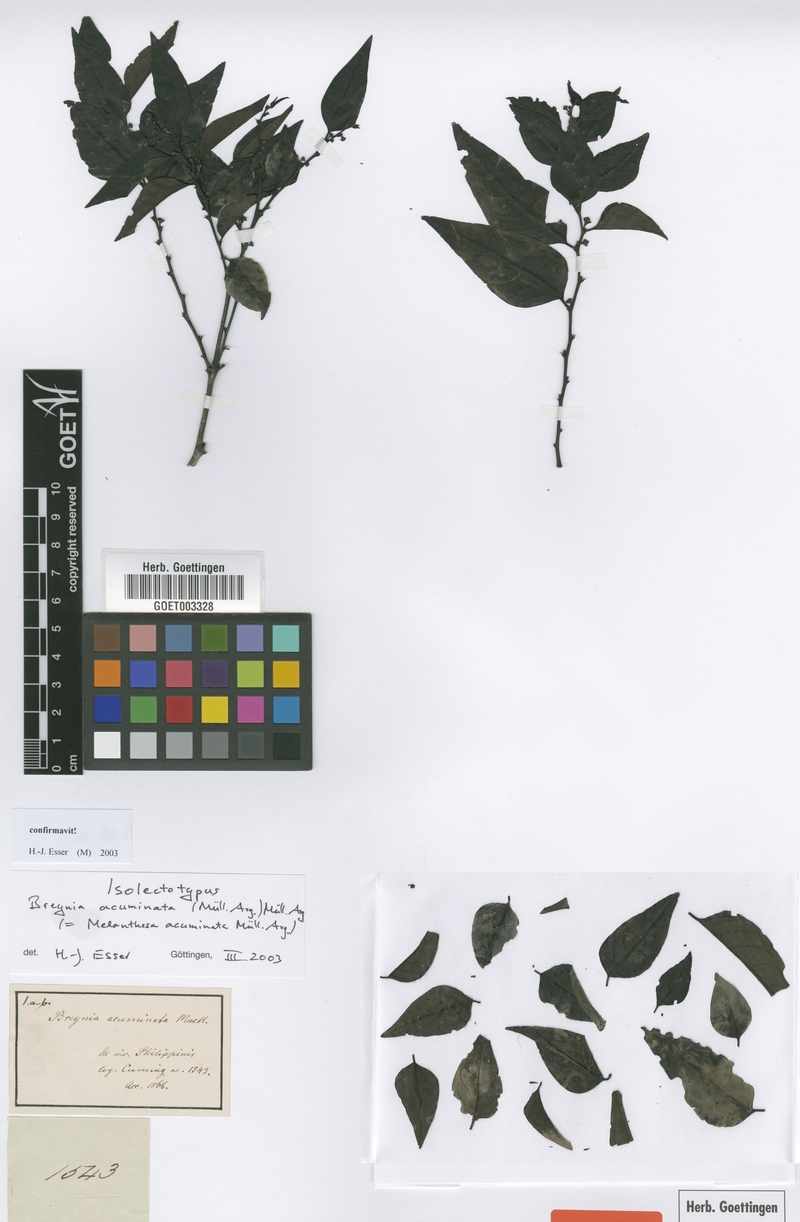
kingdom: Plantae
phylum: Tracheophyta
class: Magnoliopsida
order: Malpighiales
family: Phyllanthaceae
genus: Breynia
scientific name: Breynia racemosa
